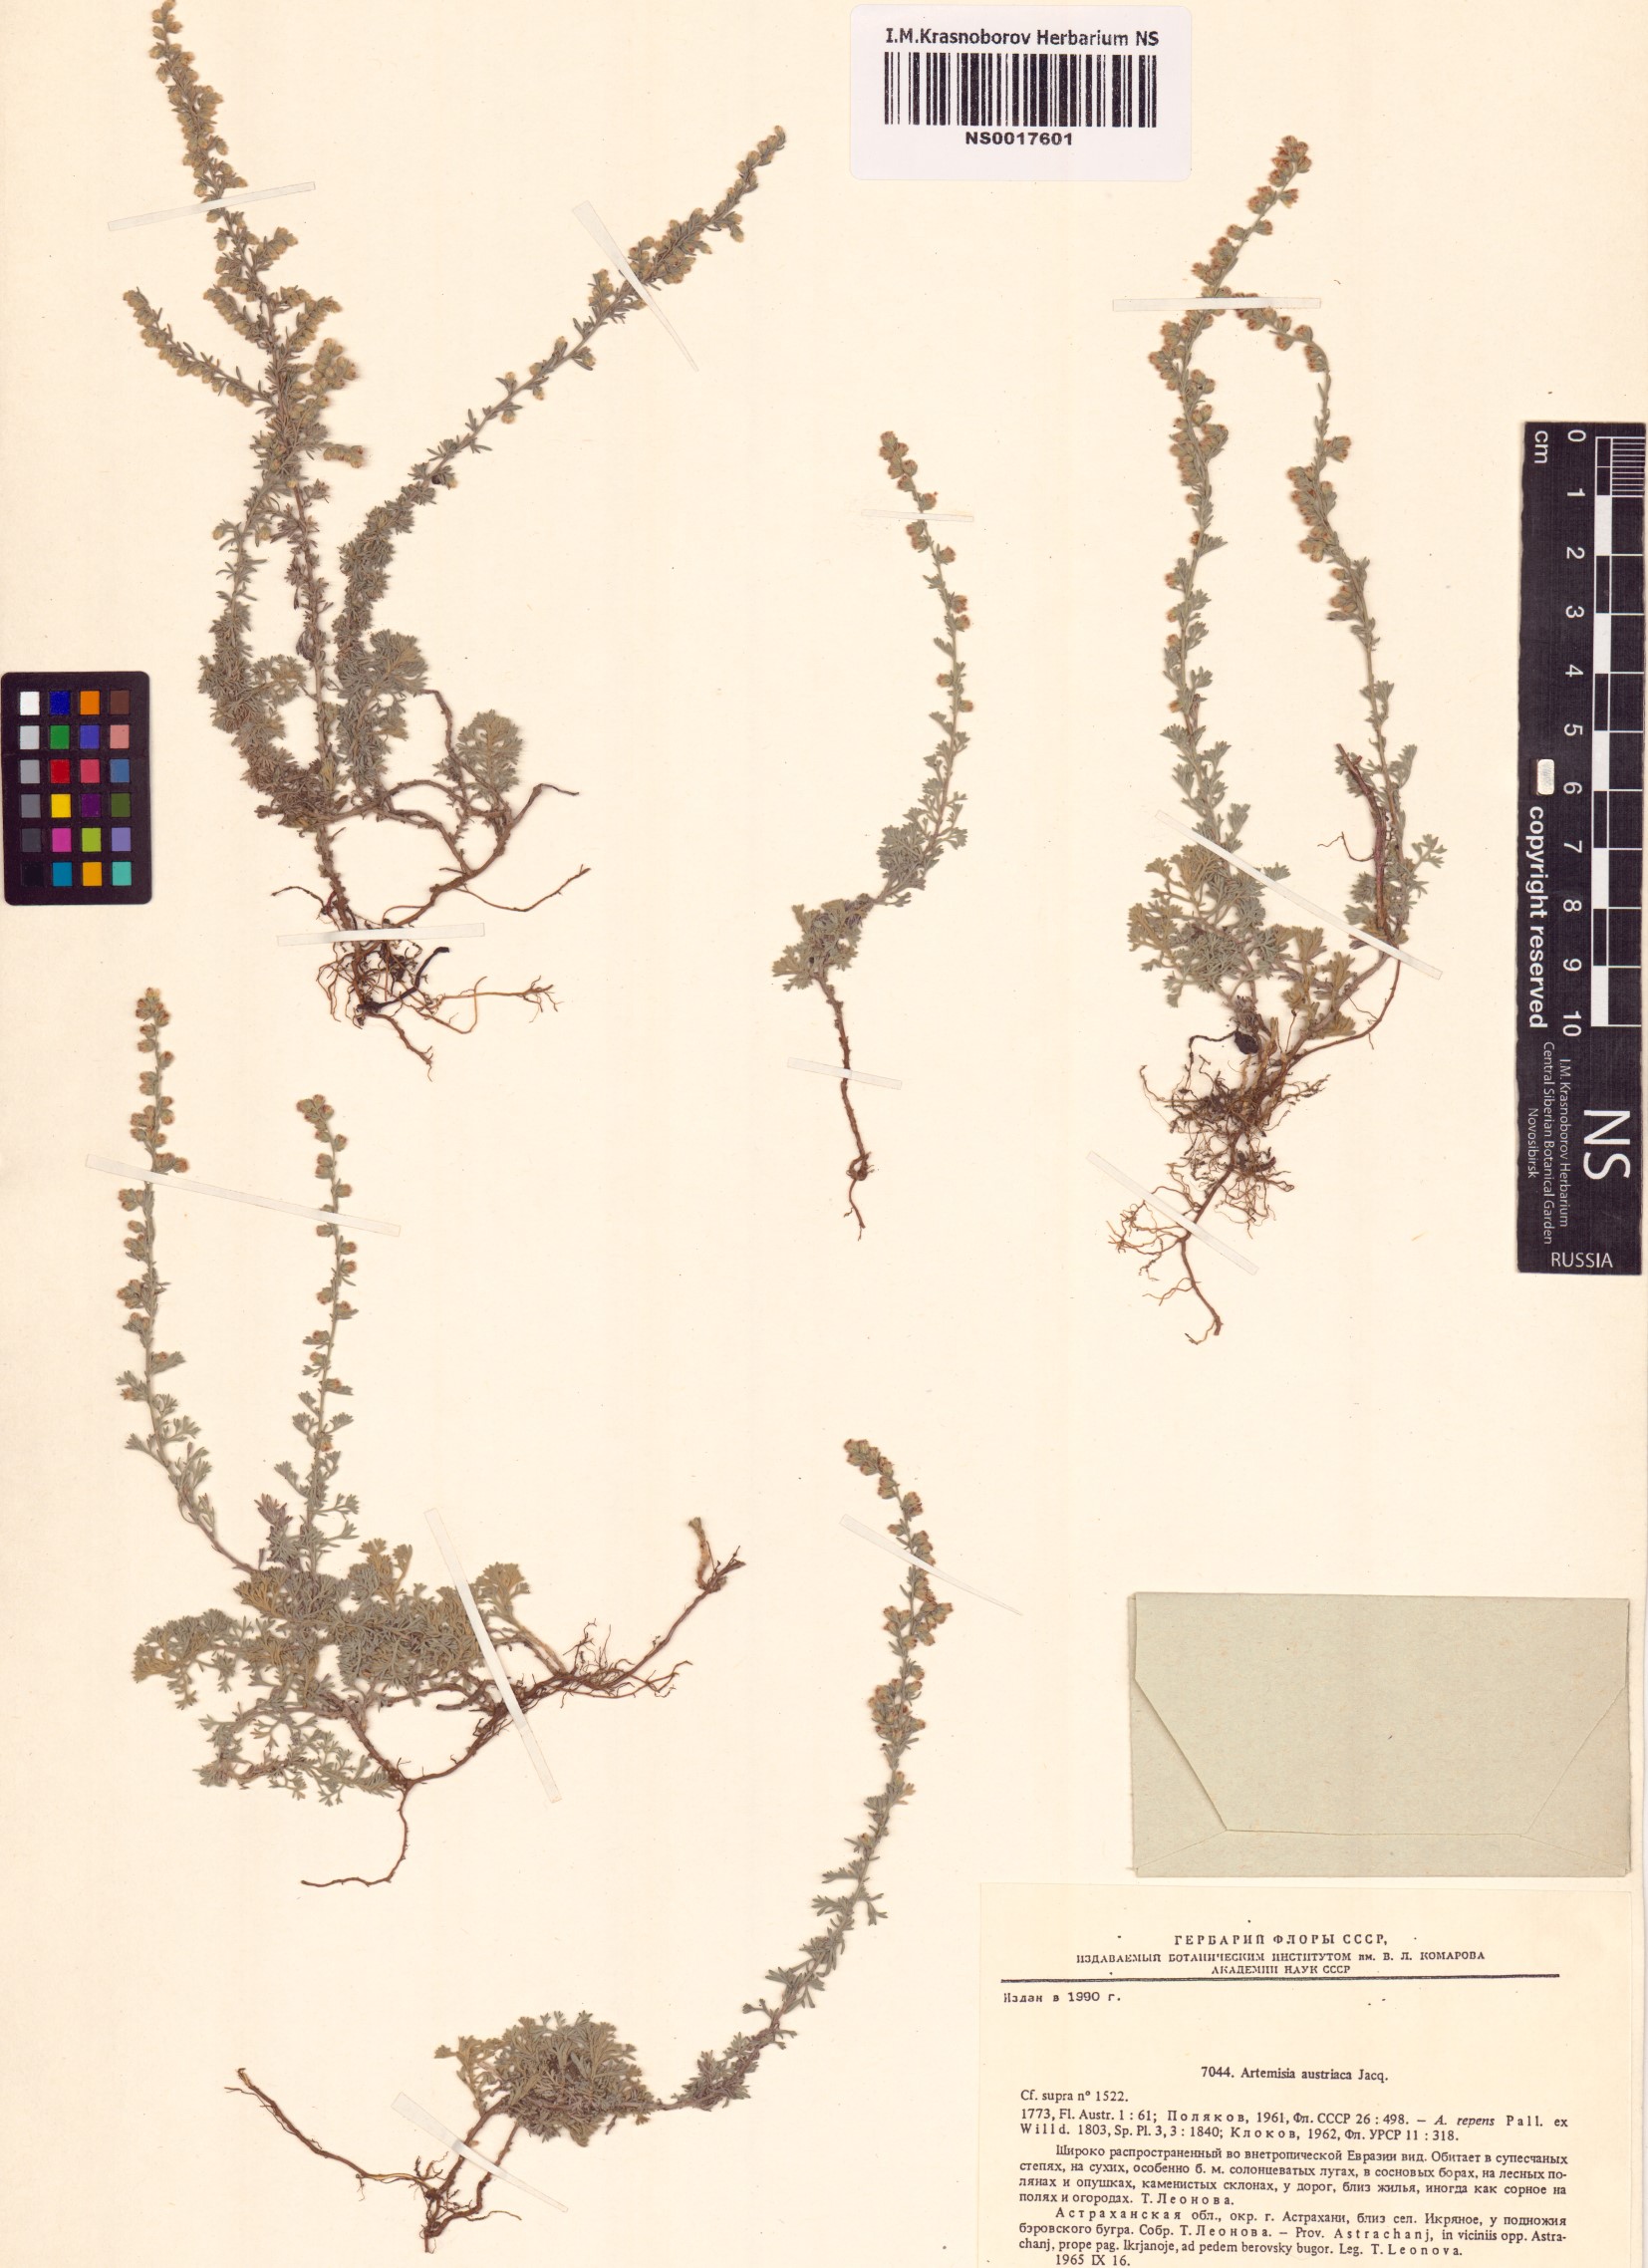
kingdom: Plantae
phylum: Tracheophyta
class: Magnoliopsida
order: Asterales
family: Asteraceae
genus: Artemisia
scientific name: Artemisia austriaca
